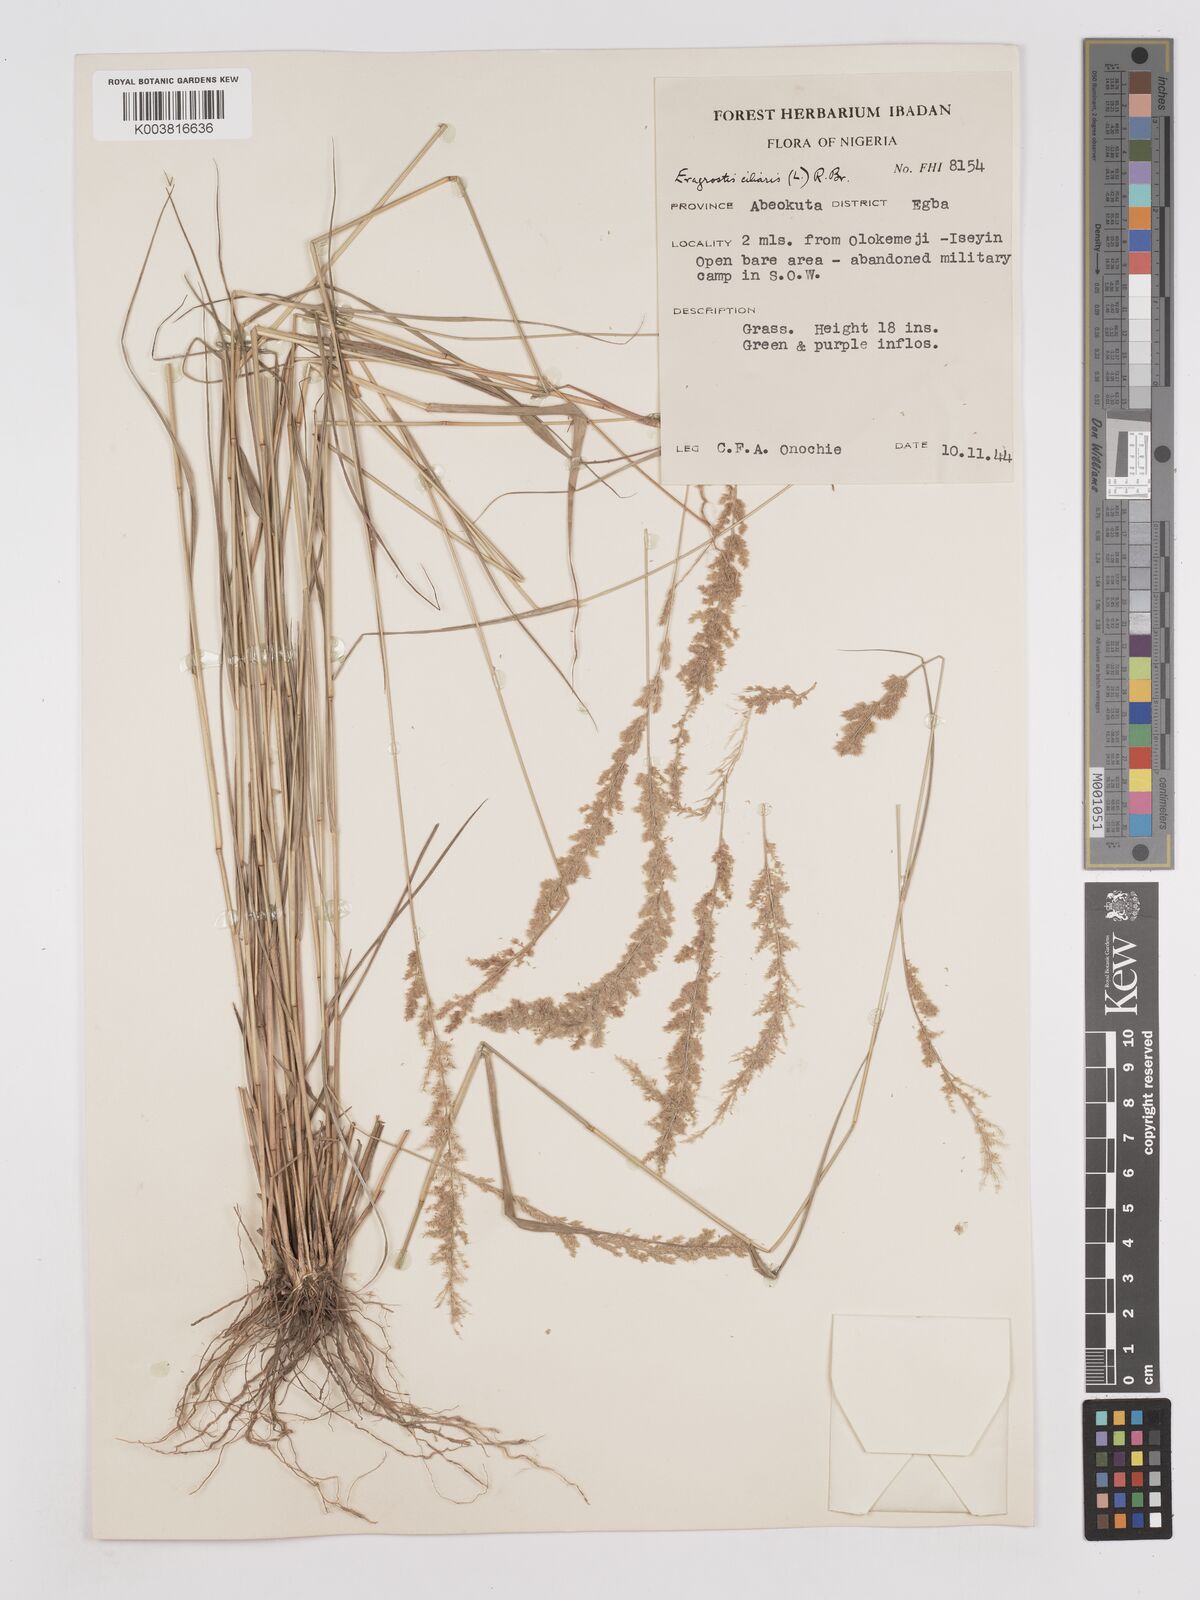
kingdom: Plantae
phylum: Tracheophyta
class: Liliopsida
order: Poales
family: Poaceae
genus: Eragrostis
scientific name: Eragrostis ciliaris
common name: Gophertail lovegrass
